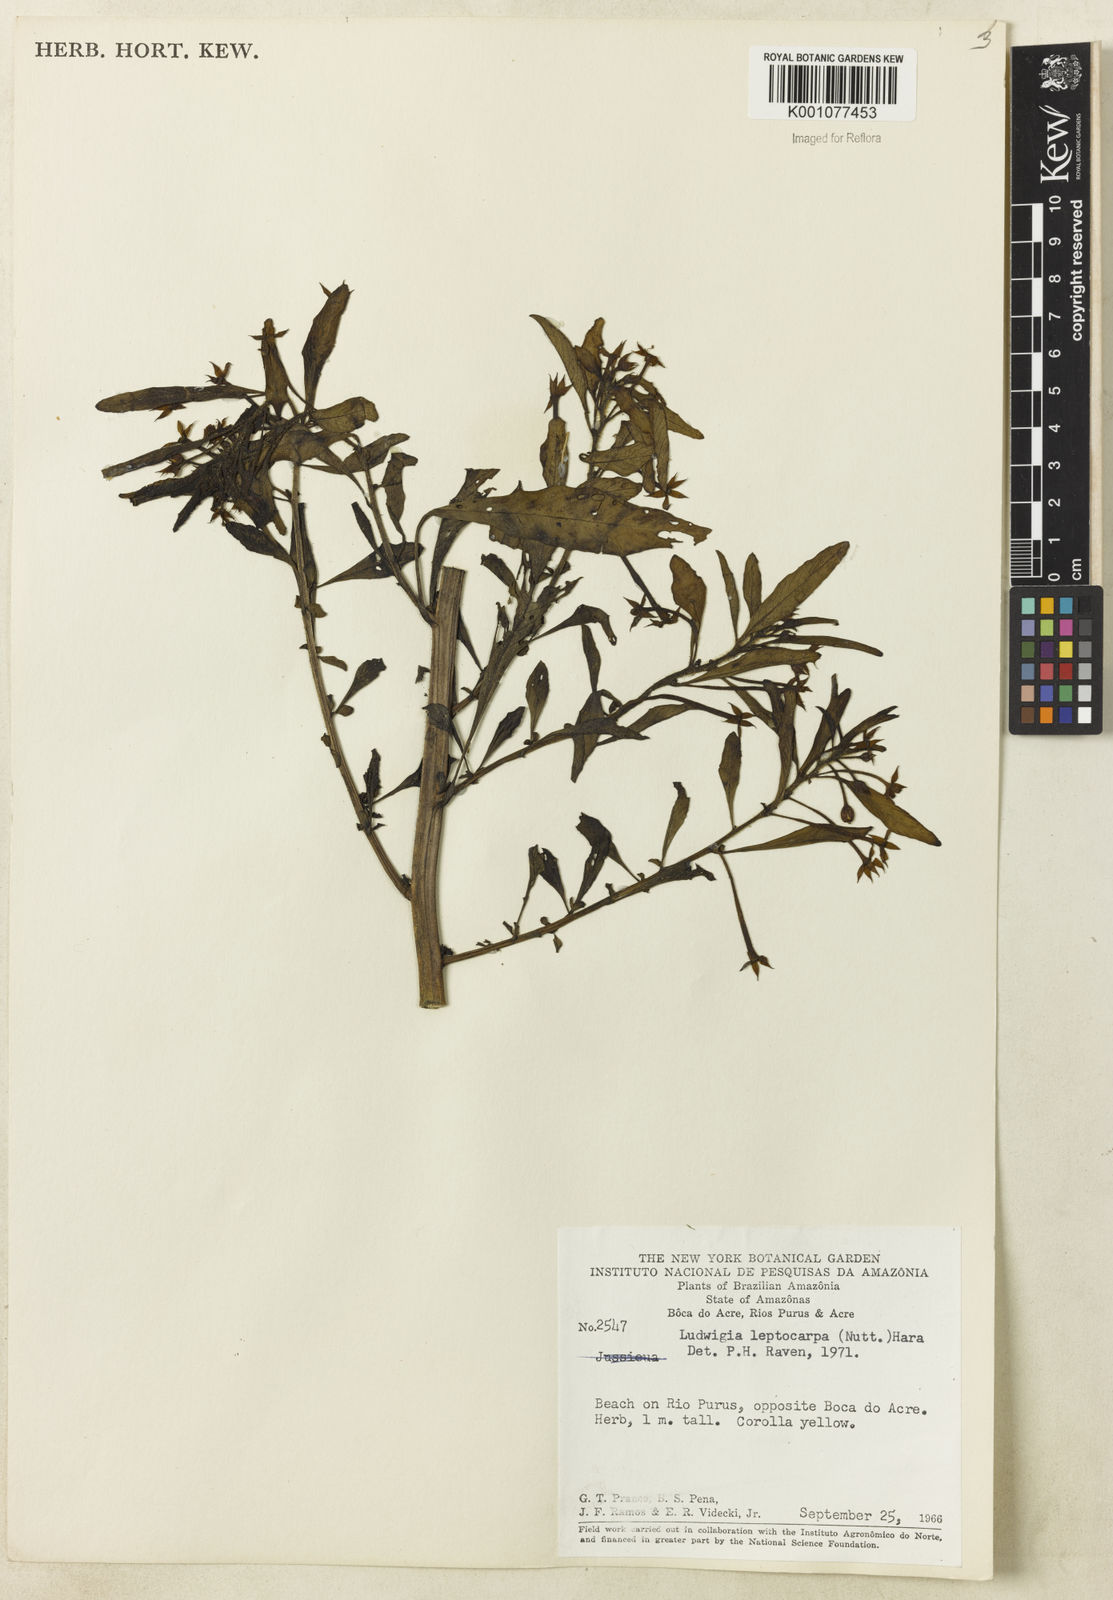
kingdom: Plantae
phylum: Tracheophyta
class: Magnoliopsida
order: Myrtales
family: Onagraceae
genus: Ludwigia
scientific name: Ludwigia leptocarpa
